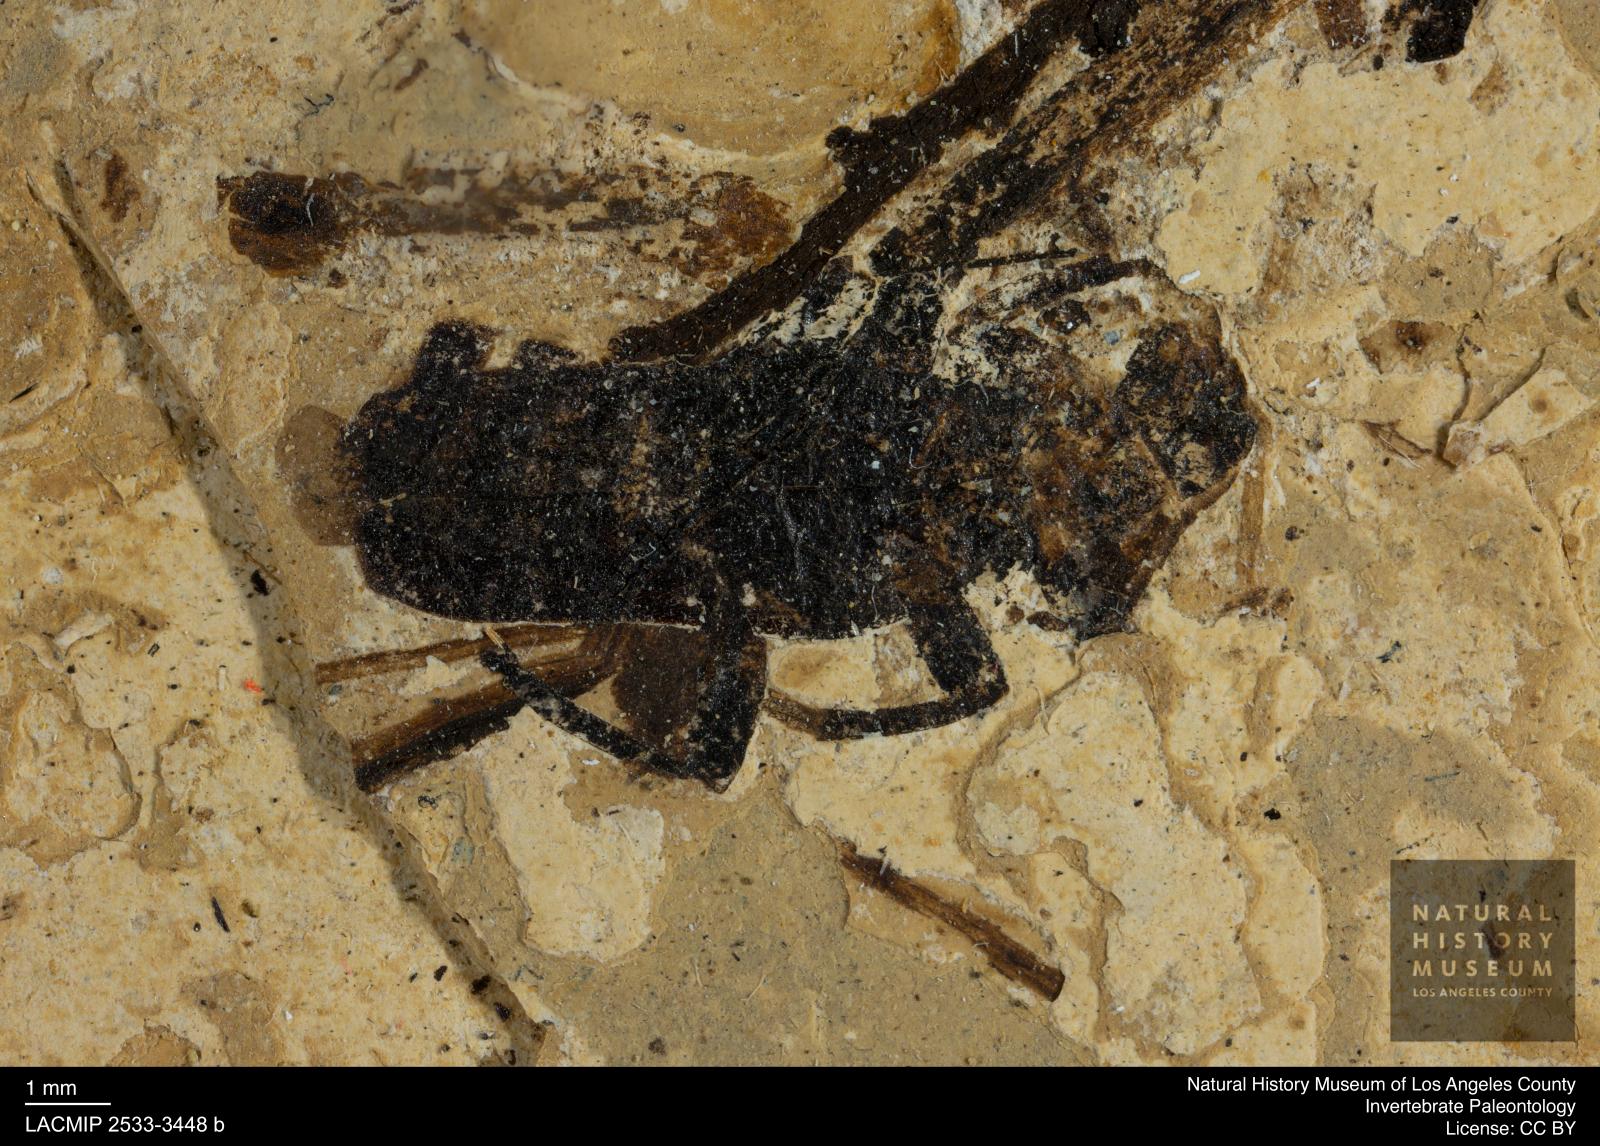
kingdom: Animalia
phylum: Arthropoda
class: Insecta
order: Coleoptera
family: Cantharidae
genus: Rhagonycha
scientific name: Rhagonycha ultramundana
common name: Solider beetle
